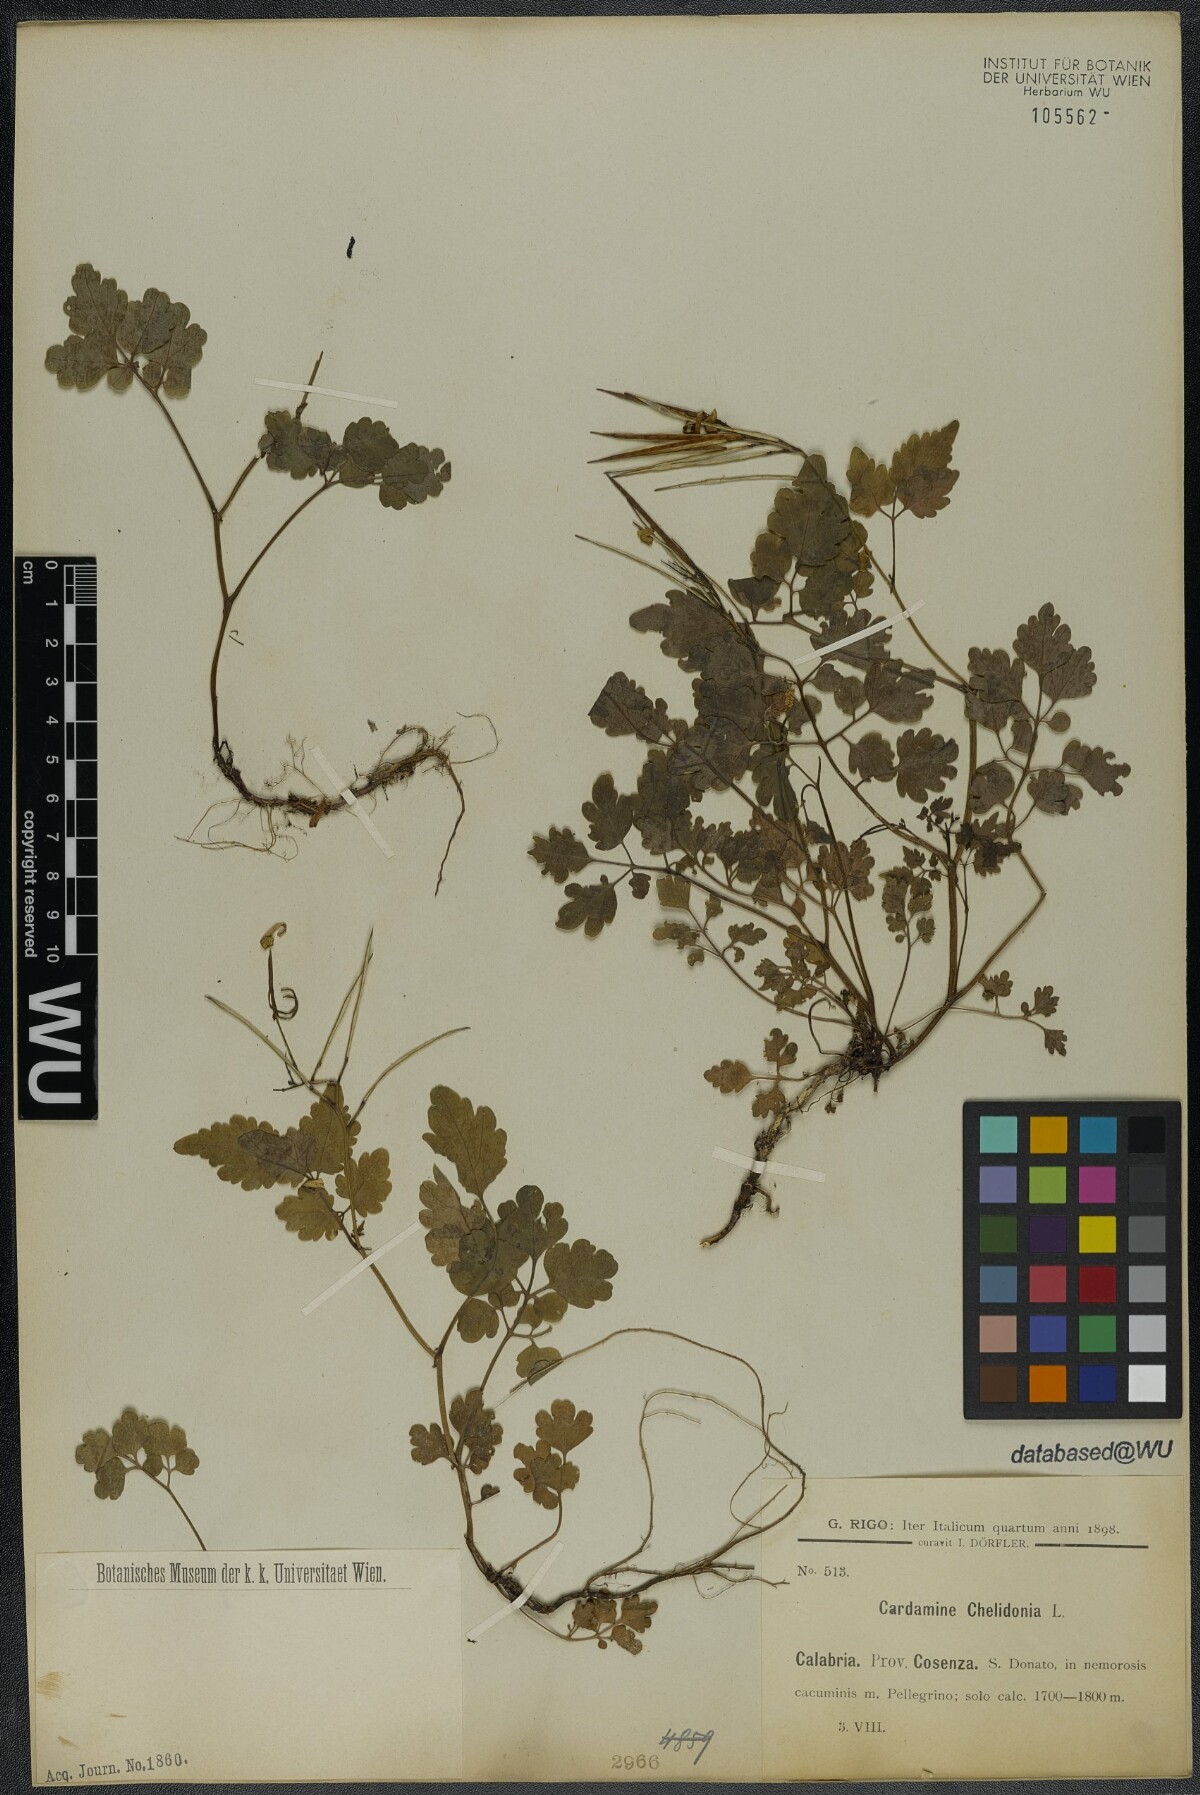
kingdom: Plantae
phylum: Tracheophyta
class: Magnoliopsida
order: Brassicales
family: Brassicaceae
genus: Cardamine
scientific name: Cardamine chelidonia
